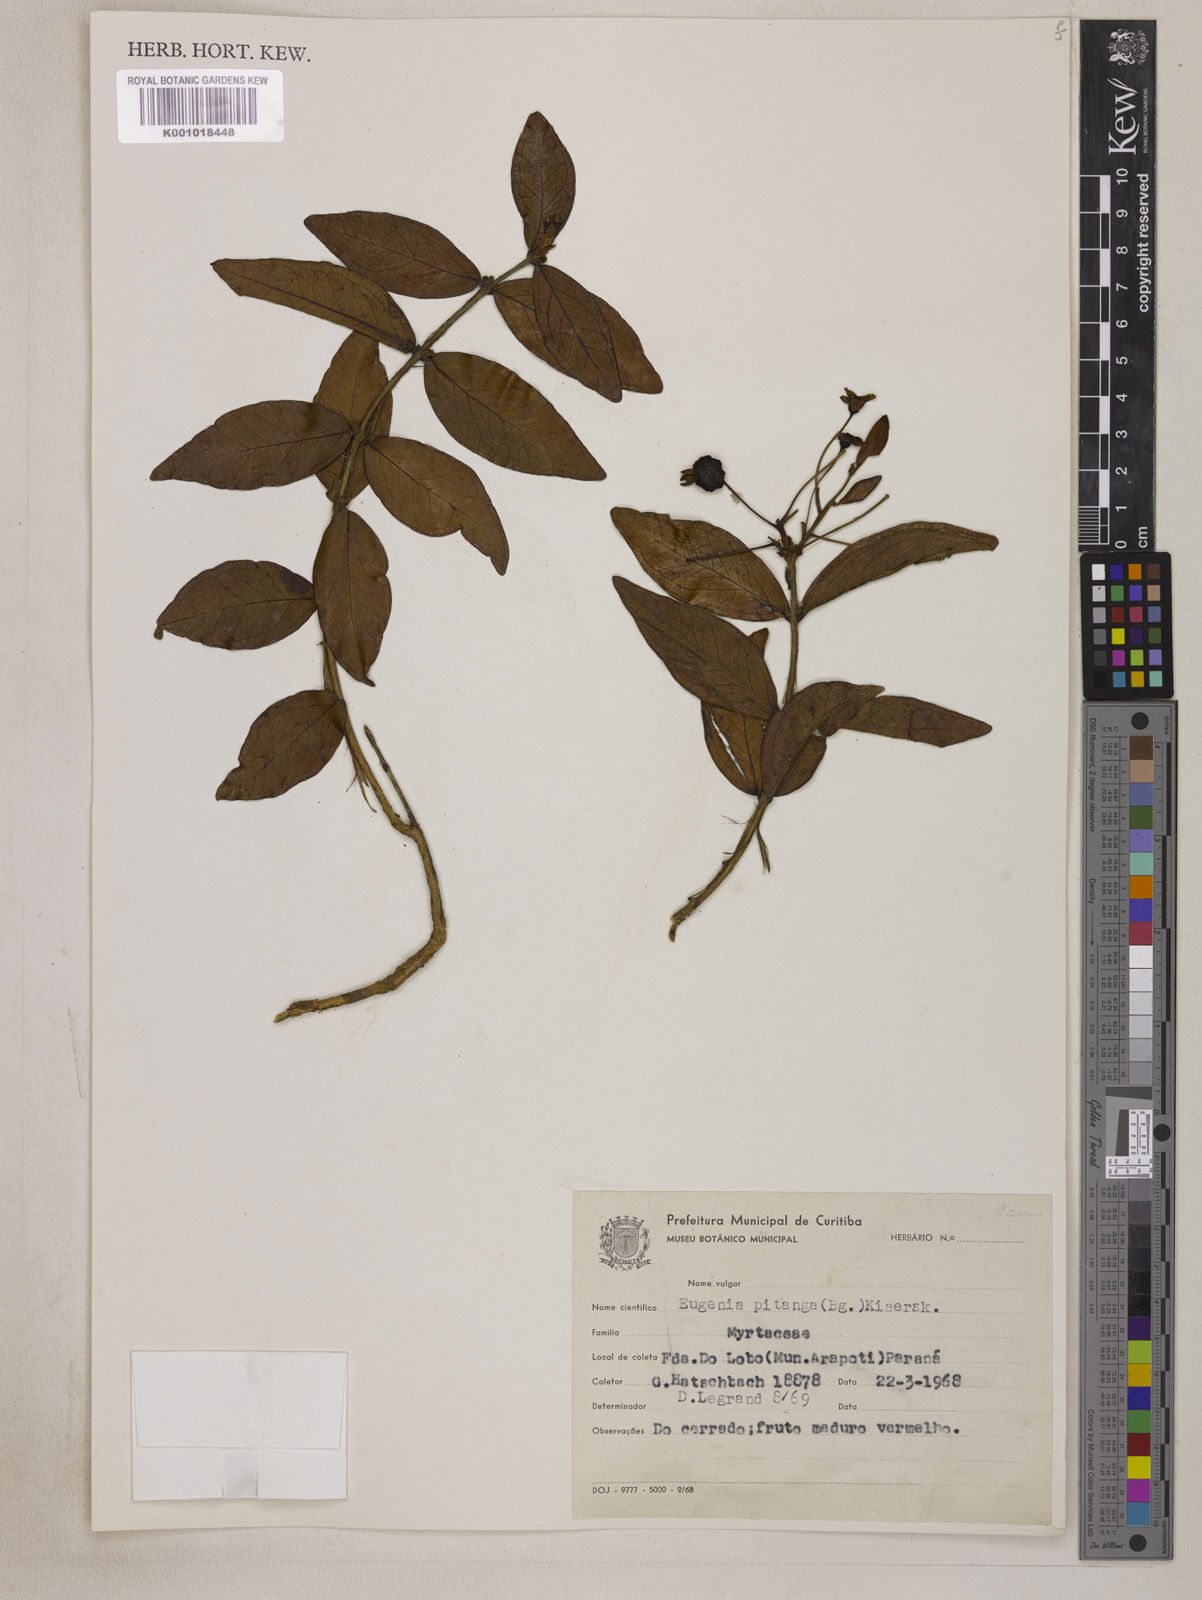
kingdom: Plantae
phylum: Tracheophyta
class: Magnoliopsida
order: Myrtales
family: Myrtaceae
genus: Eugenia
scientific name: Eugenia
